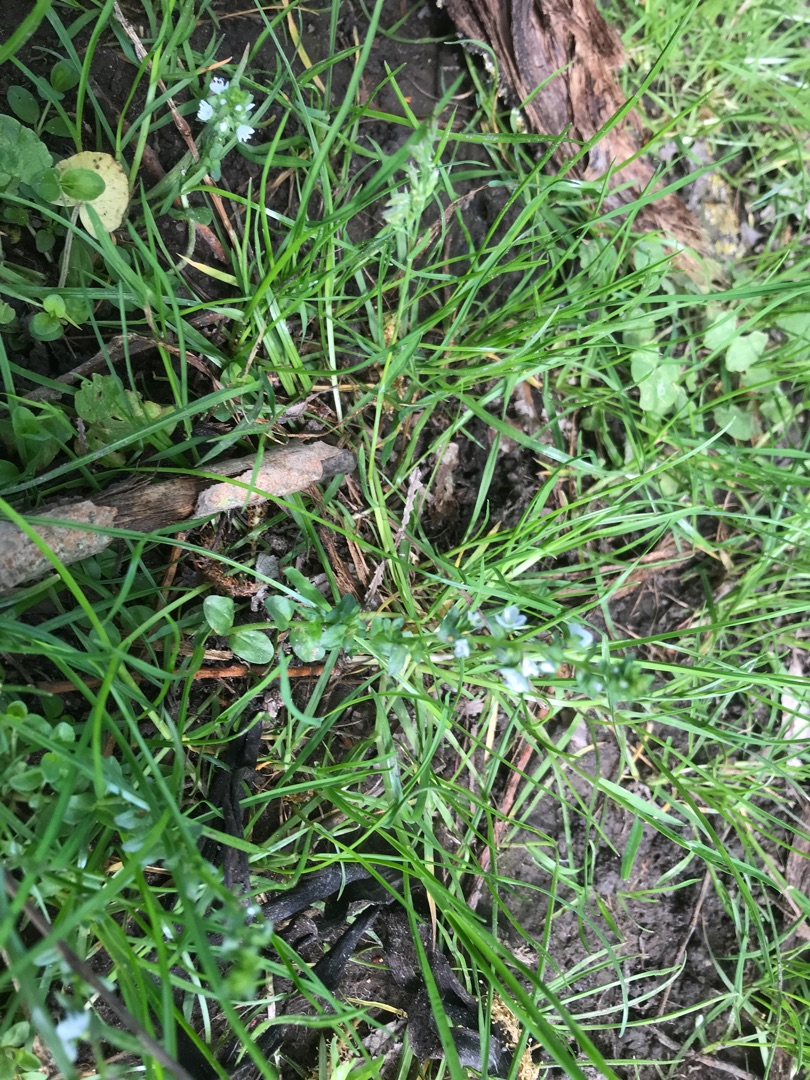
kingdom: Plantae
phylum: Tracheophyta
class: Magnoliopsida
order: Lamiales
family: Plantaginaceae
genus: Veronica
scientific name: Veronica serpyllifolia
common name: Glat ærenpris
